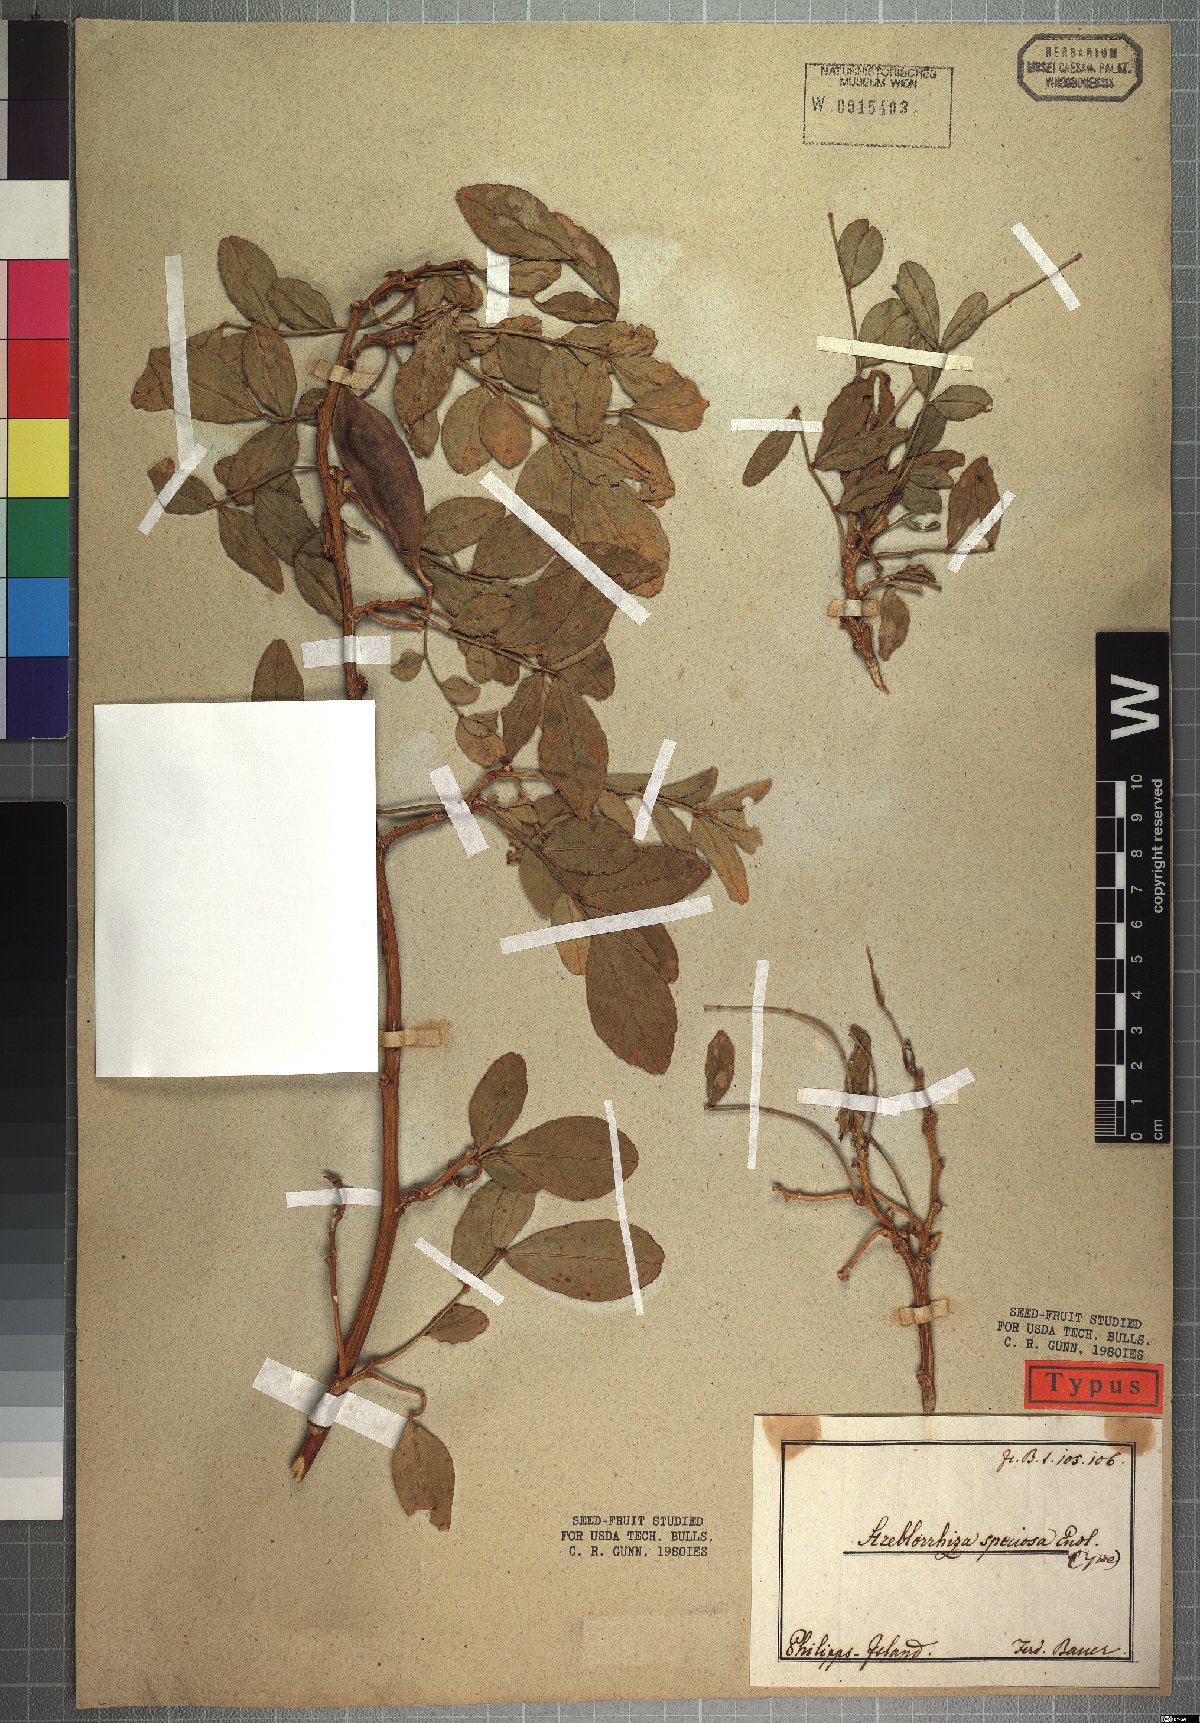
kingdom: Plantae
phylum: Tracheophyta
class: Magnoliopsida
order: Fabales
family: Fabaceae
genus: Streblorrhiza
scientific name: Streblorrhiza speciosa
